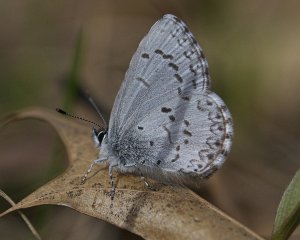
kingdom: Animalia
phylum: Arthropoda
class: Insecta
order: Lepidoptera
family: Lycaenidae
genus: Celastrina
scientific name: Celastrina ladon
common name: Spring Azure
